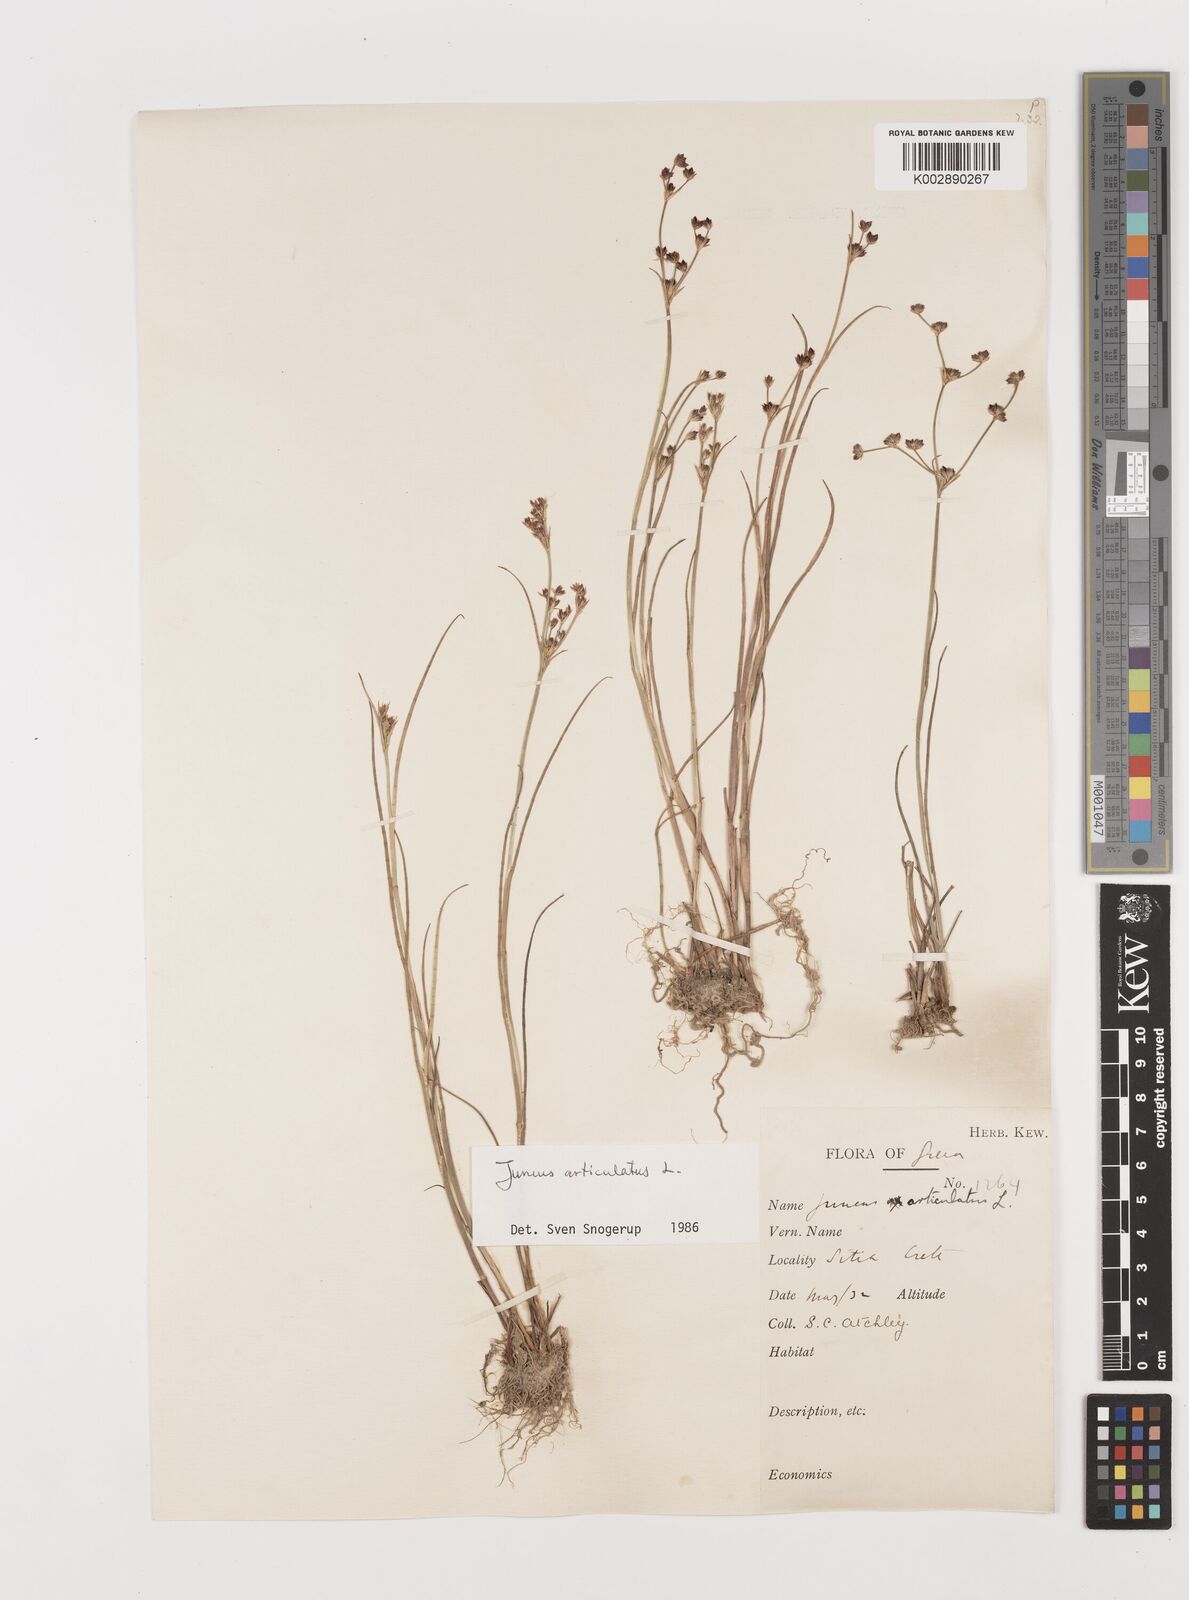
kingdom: Plantae
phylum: Tracheophyta
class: Liliopsida
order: Poales
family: Juncaceae
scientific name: Juncaceae
